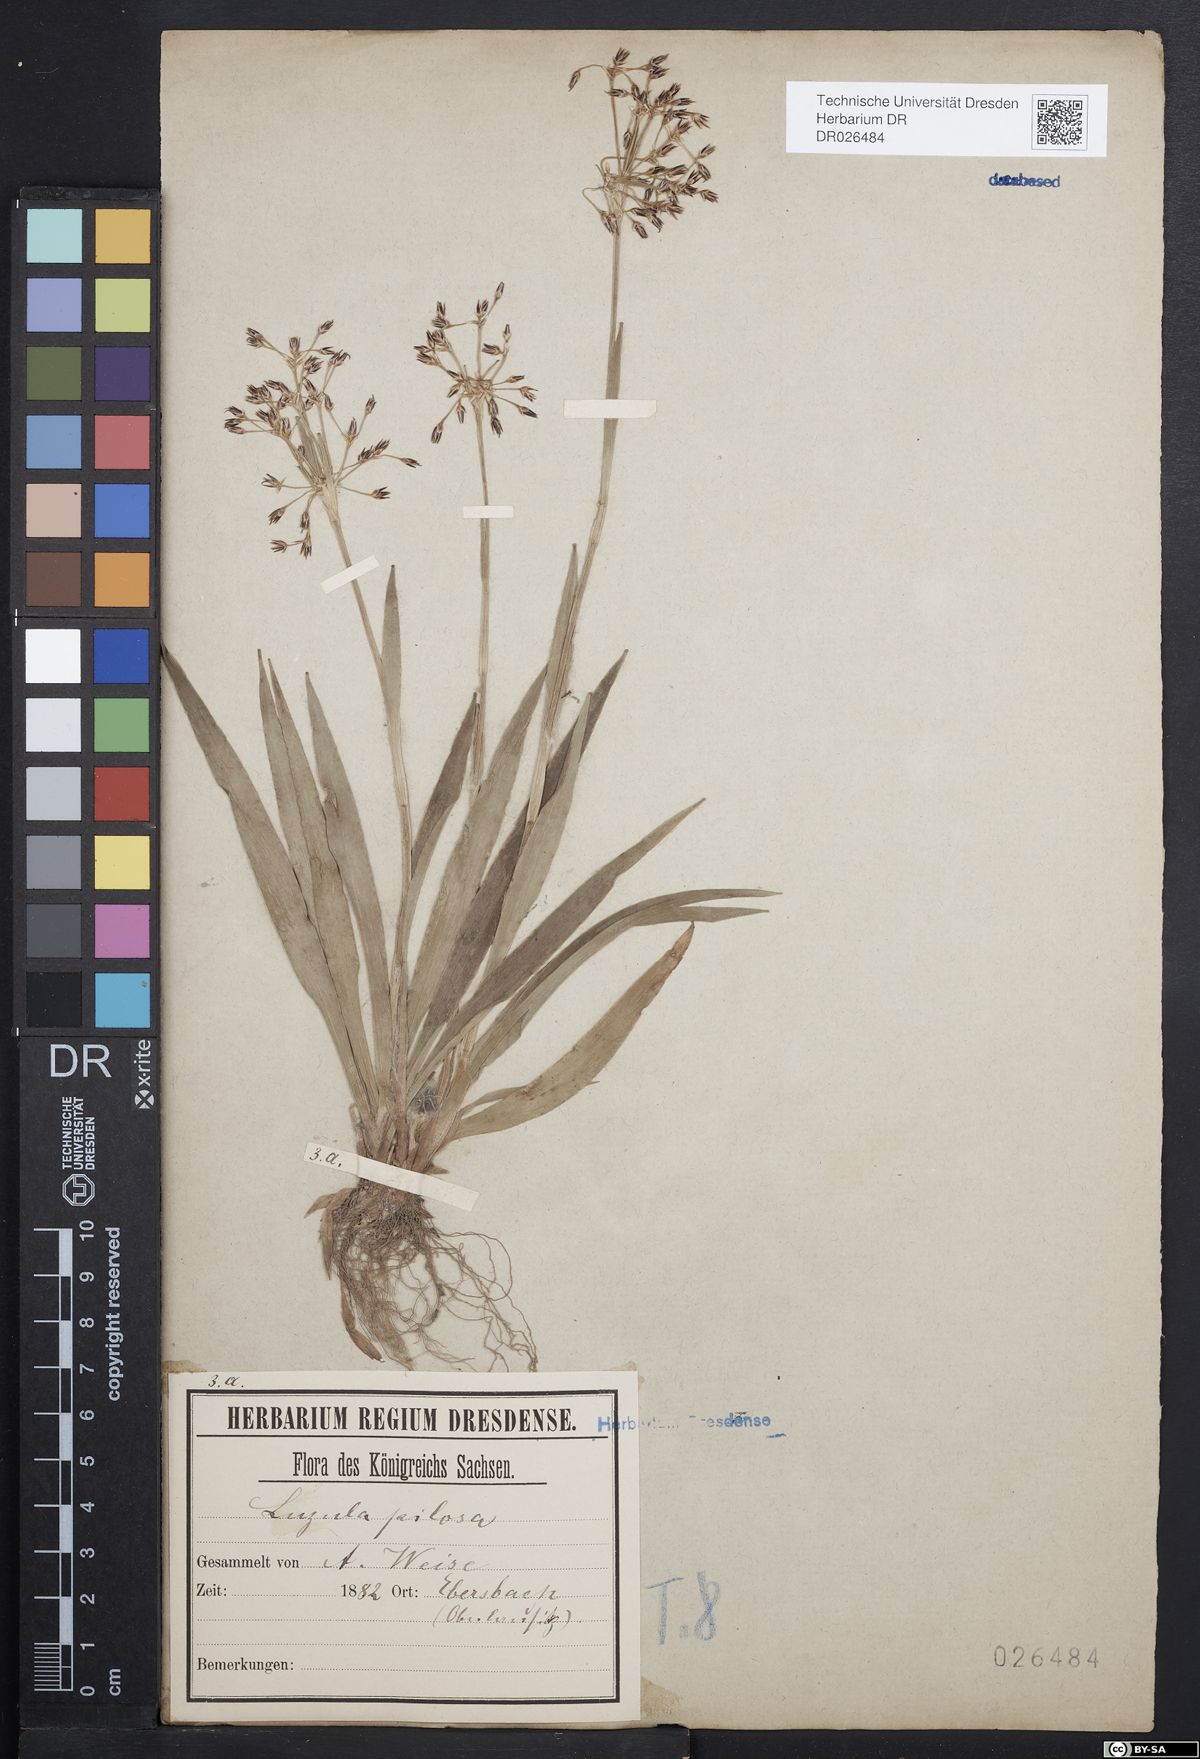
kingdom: Plantae
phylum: Tracheophyta
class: Liliopsida
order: Poales
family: Juncaceae
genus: Luzula
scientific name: Luzula pilosa
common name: Hairy wood-rush
